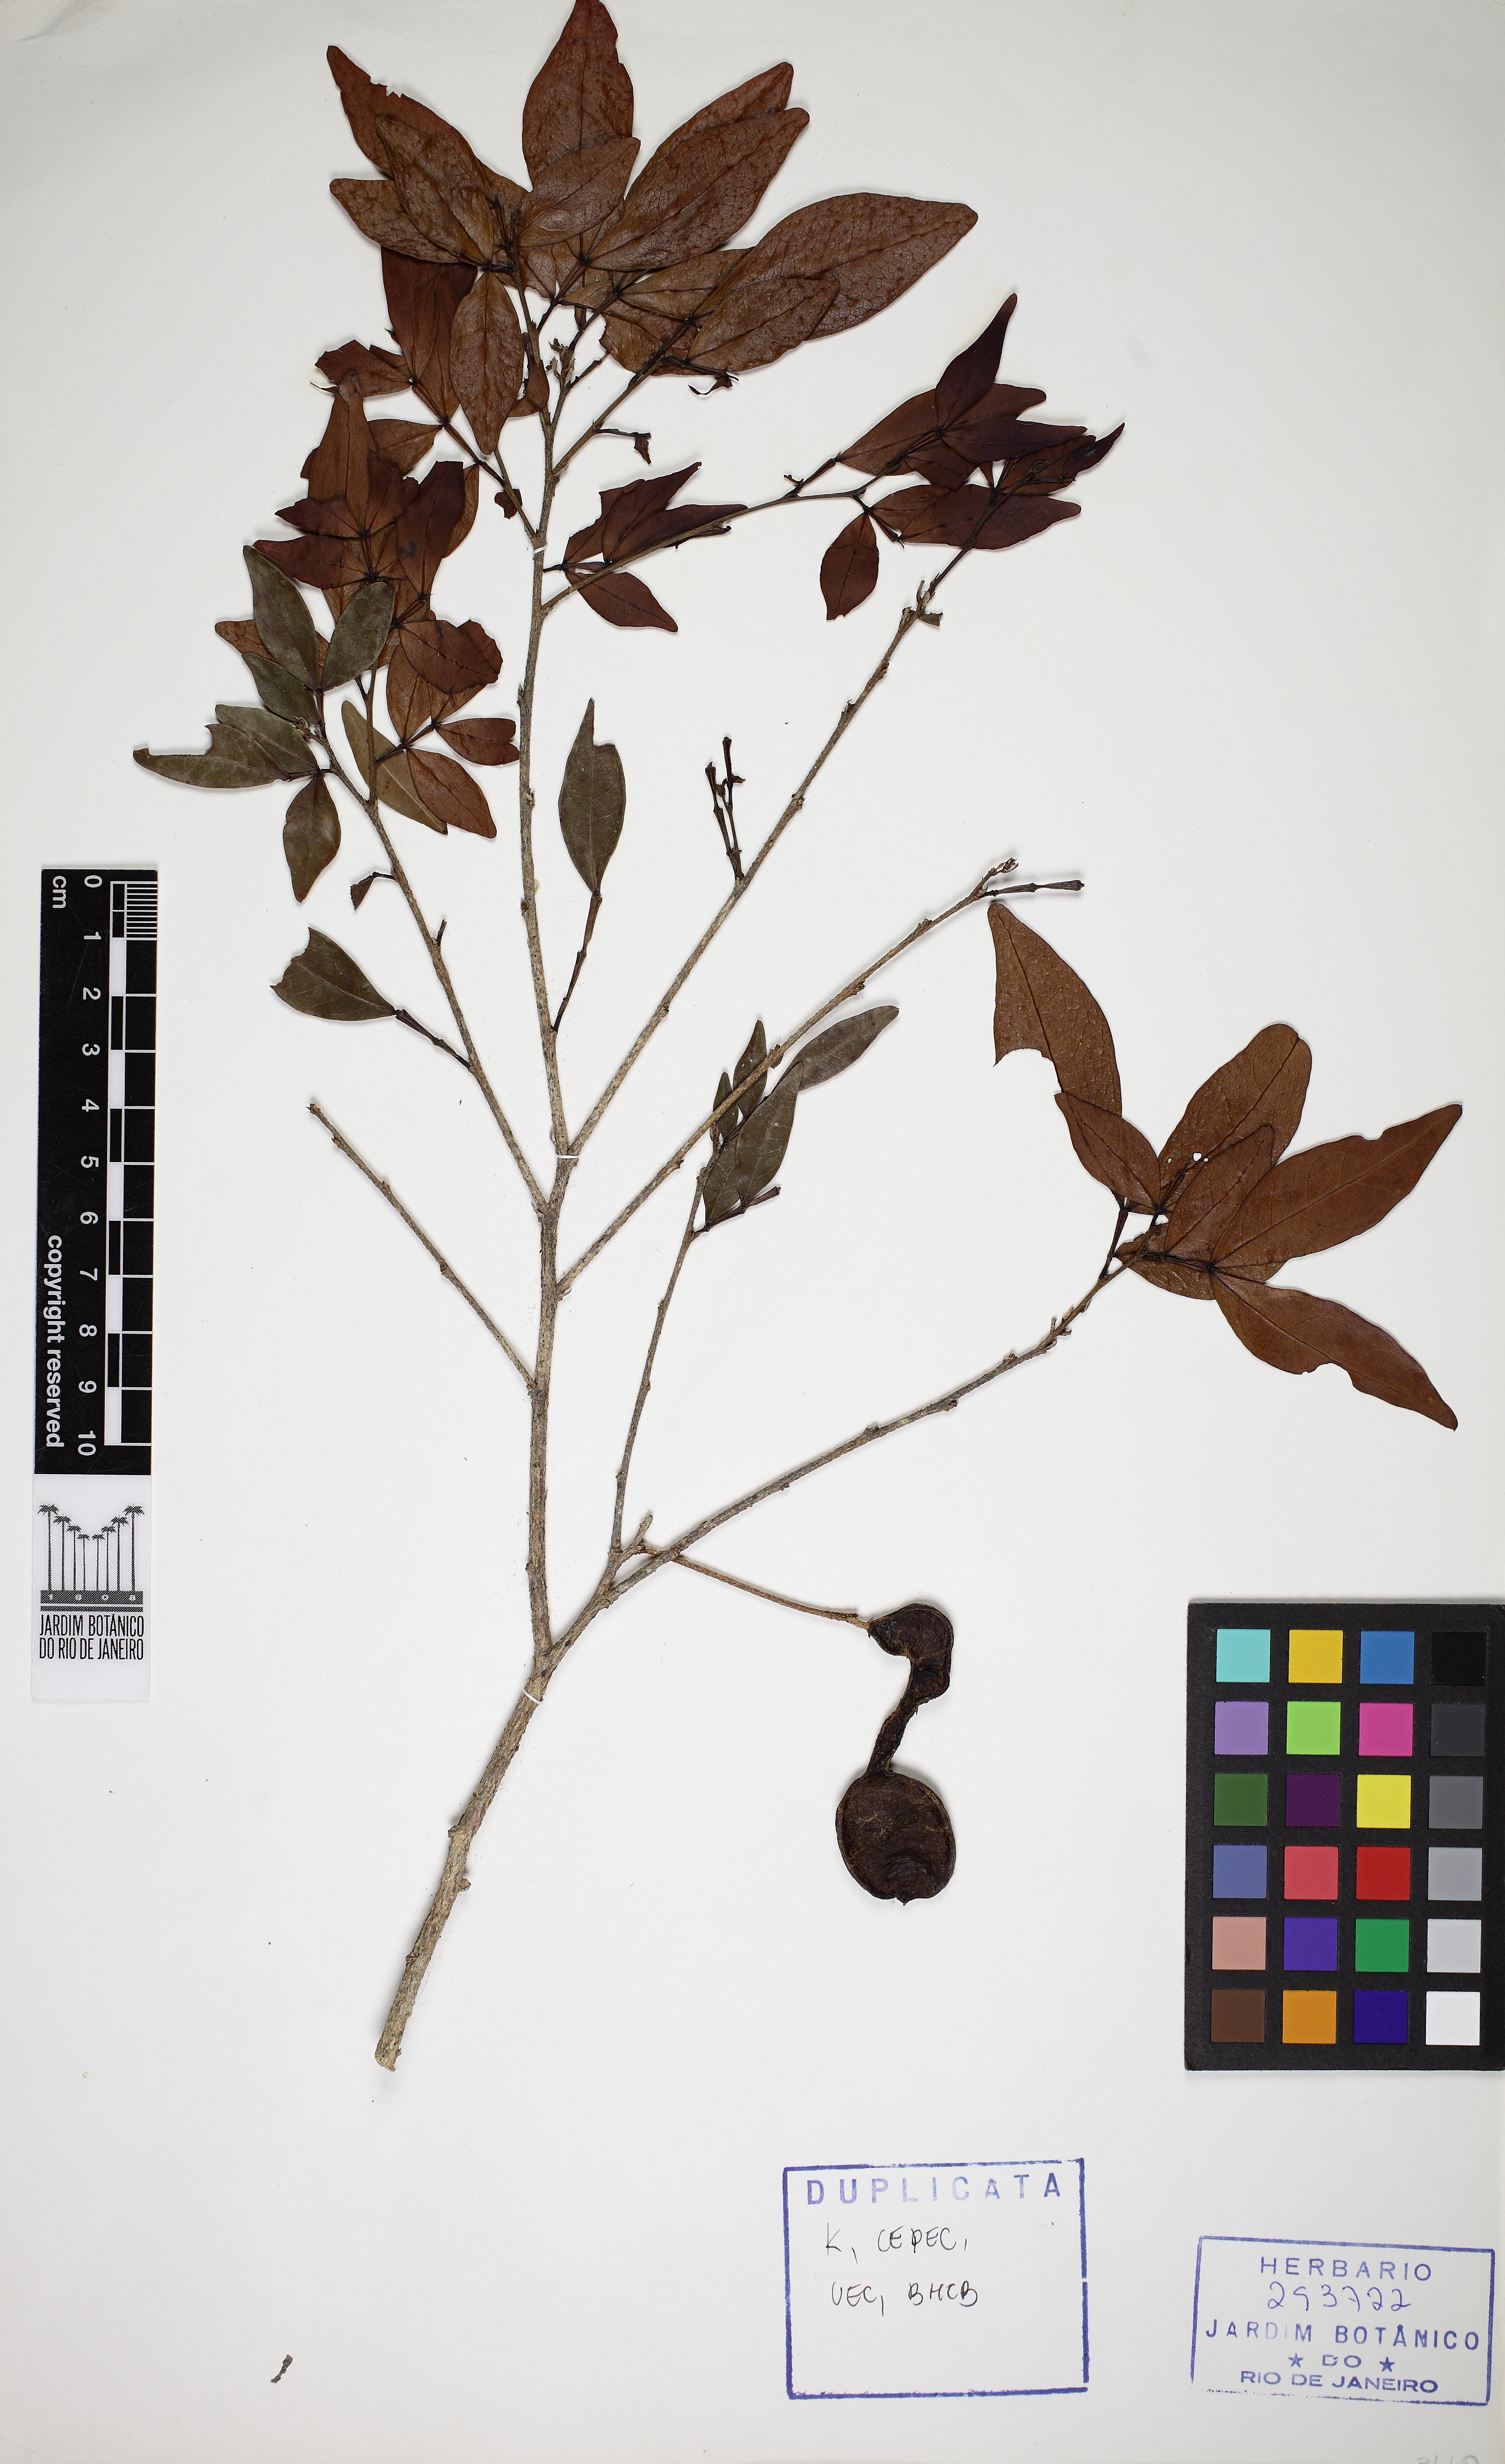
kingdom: Plantae
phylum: Tracheophyta
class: Magnoliopsida
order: Fabales
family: Fabaceae
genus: Inga
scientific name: Inga sellowiana
